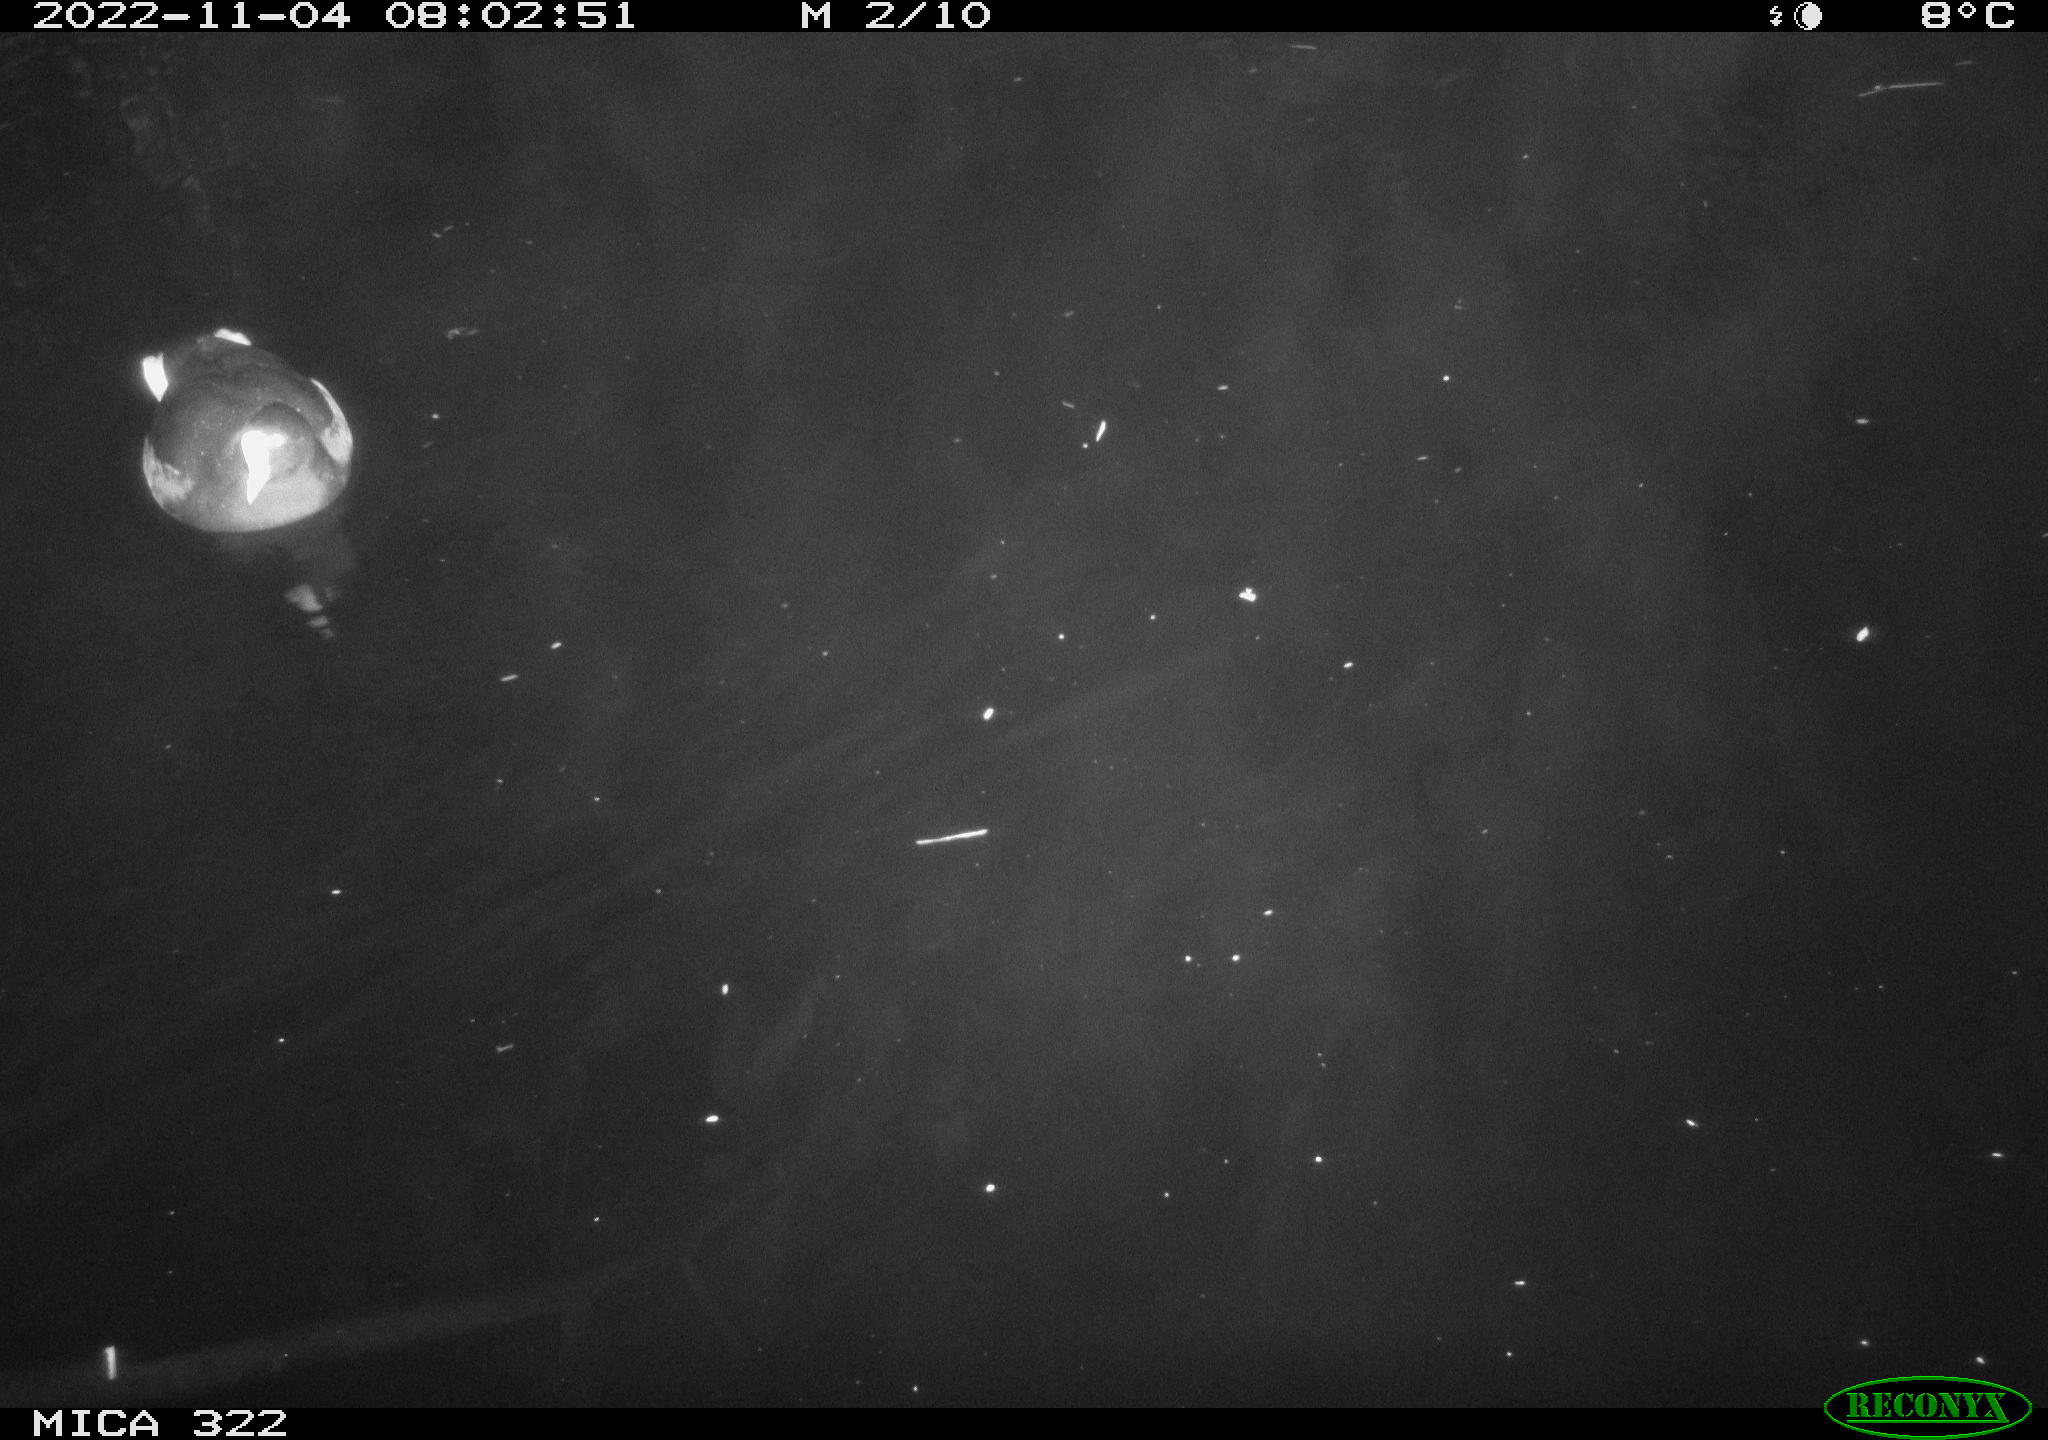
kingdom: Animalia
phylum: Chordata
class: Aves
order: Gruiformes
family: Rallidae
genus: Gallinula
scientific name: Gallinula chloropus
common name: Common moorhen
